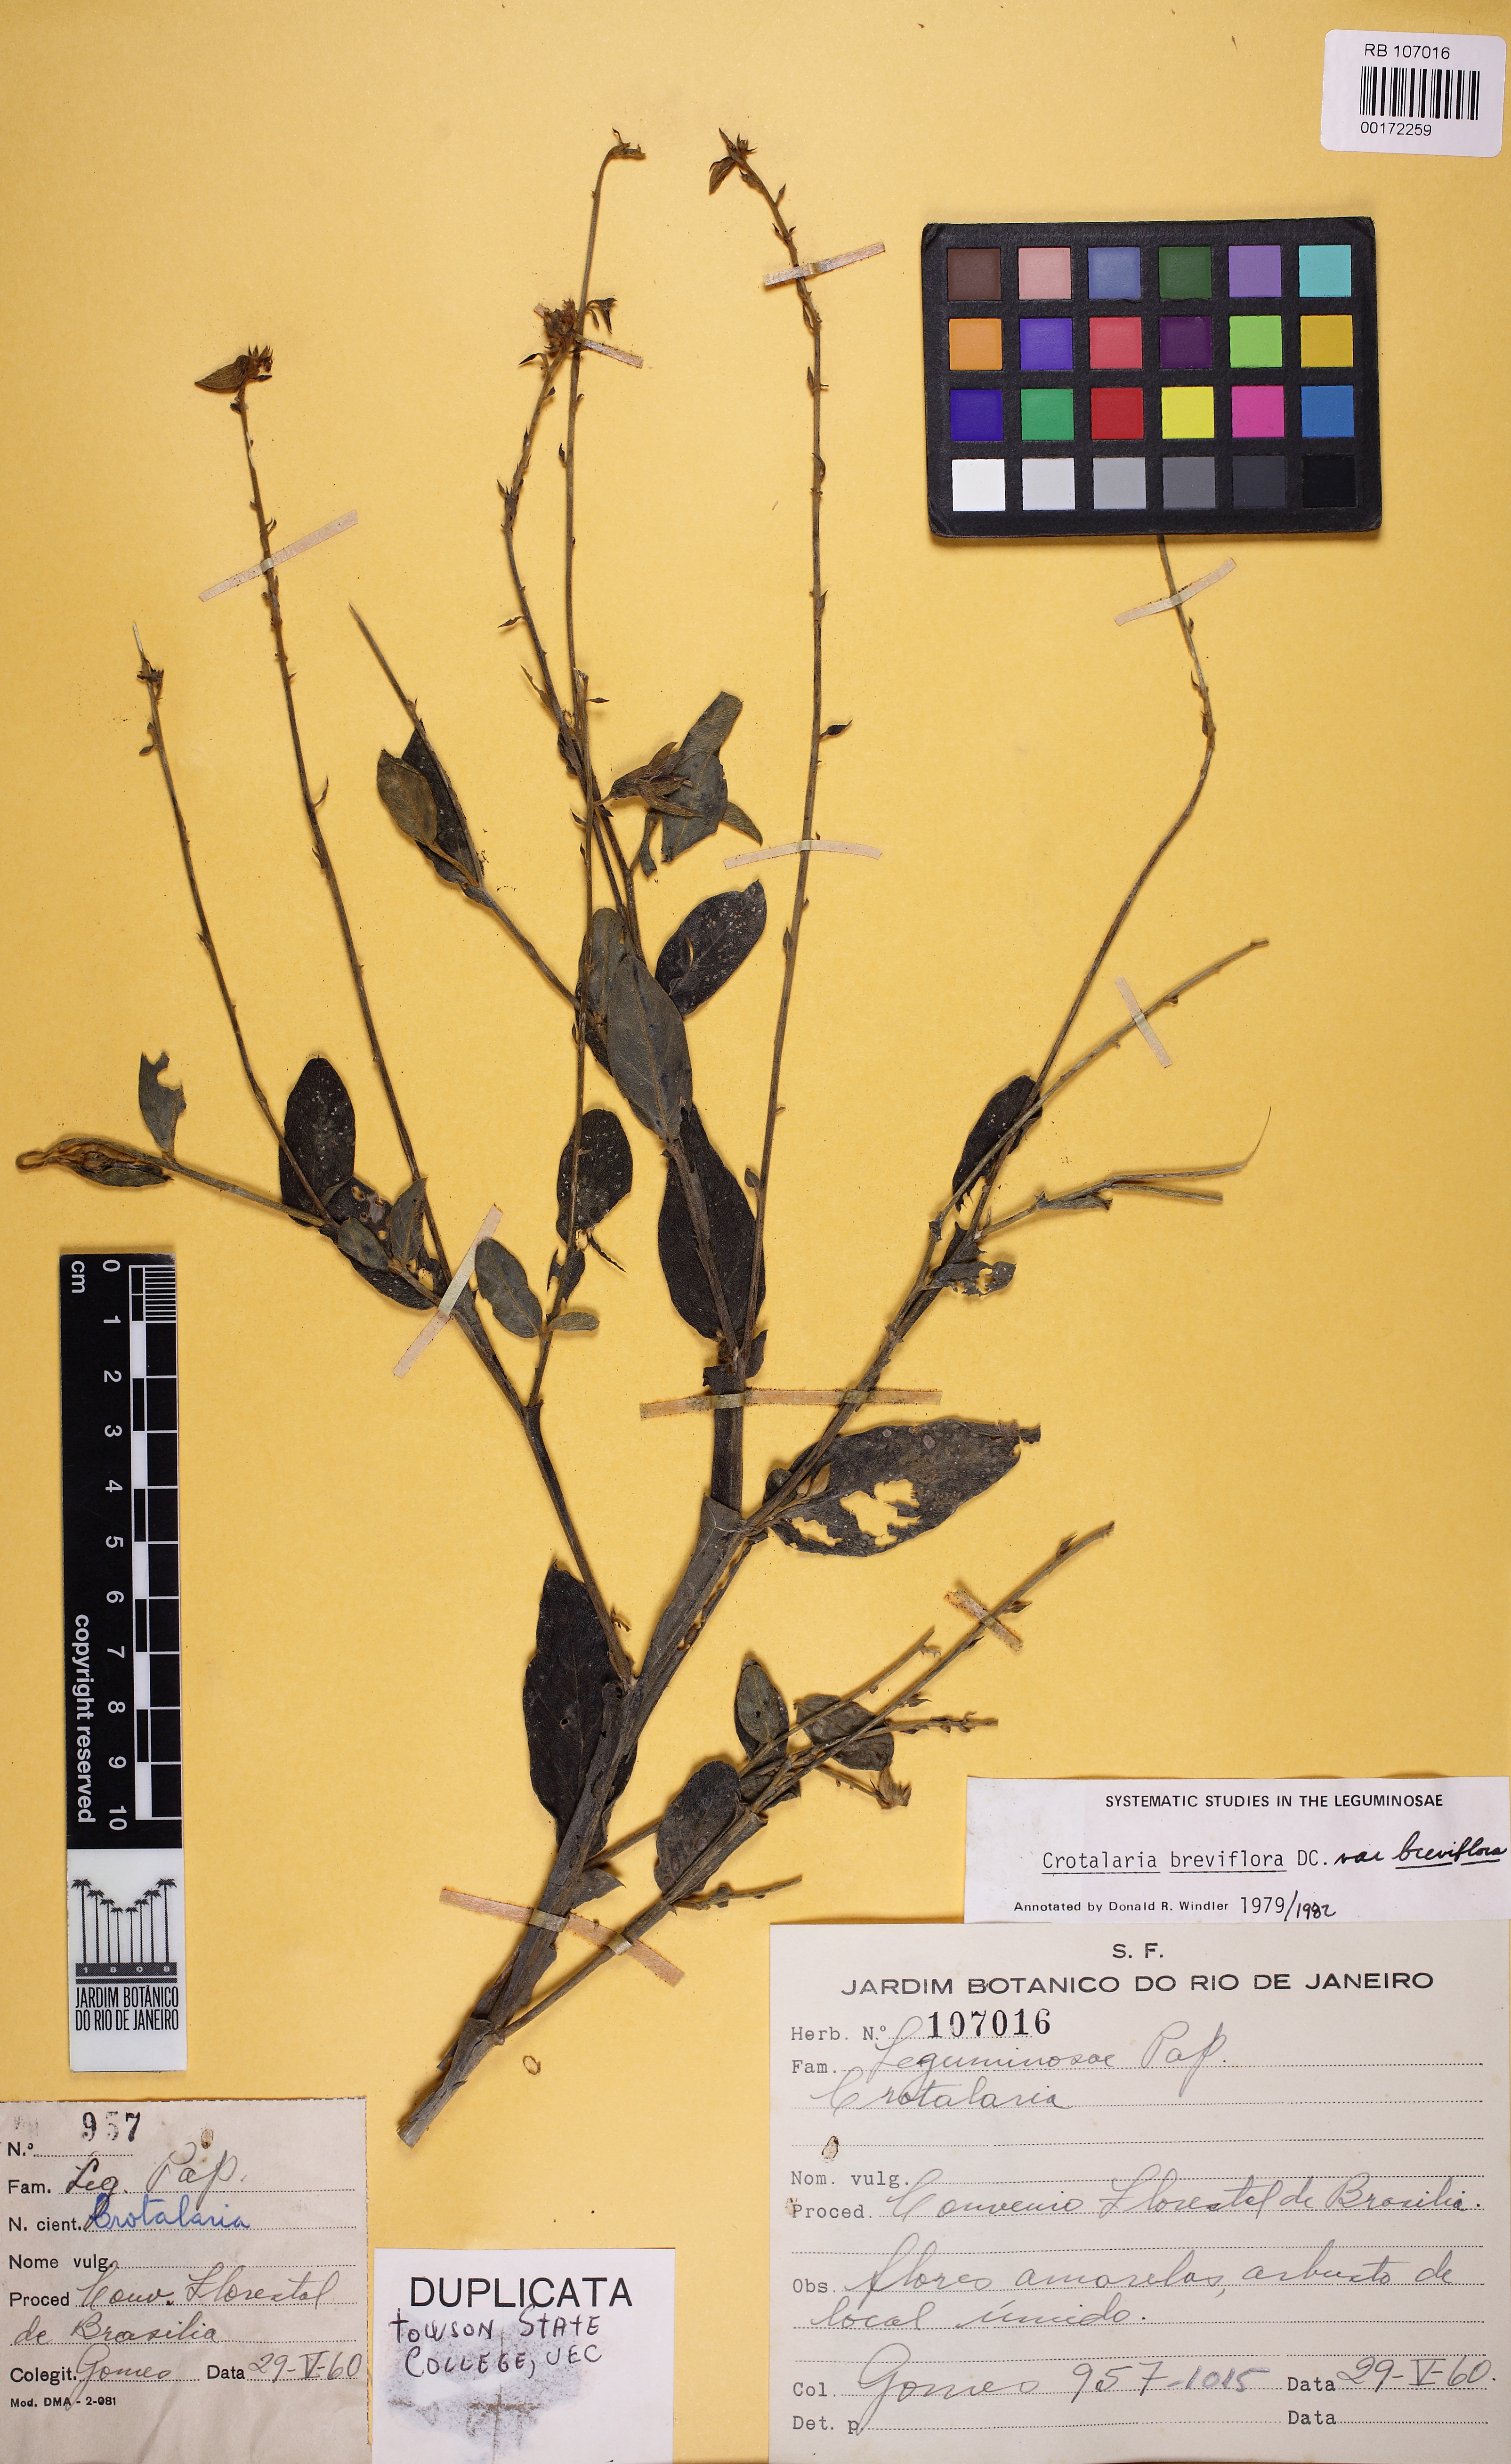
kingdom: Plantae
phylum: Tracheophyta
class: Magnoliopsida
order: Fabales
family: Fabaceae
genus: Crotalaria
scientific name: Crotalaria breviflora
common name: Short-flower crotalaria
